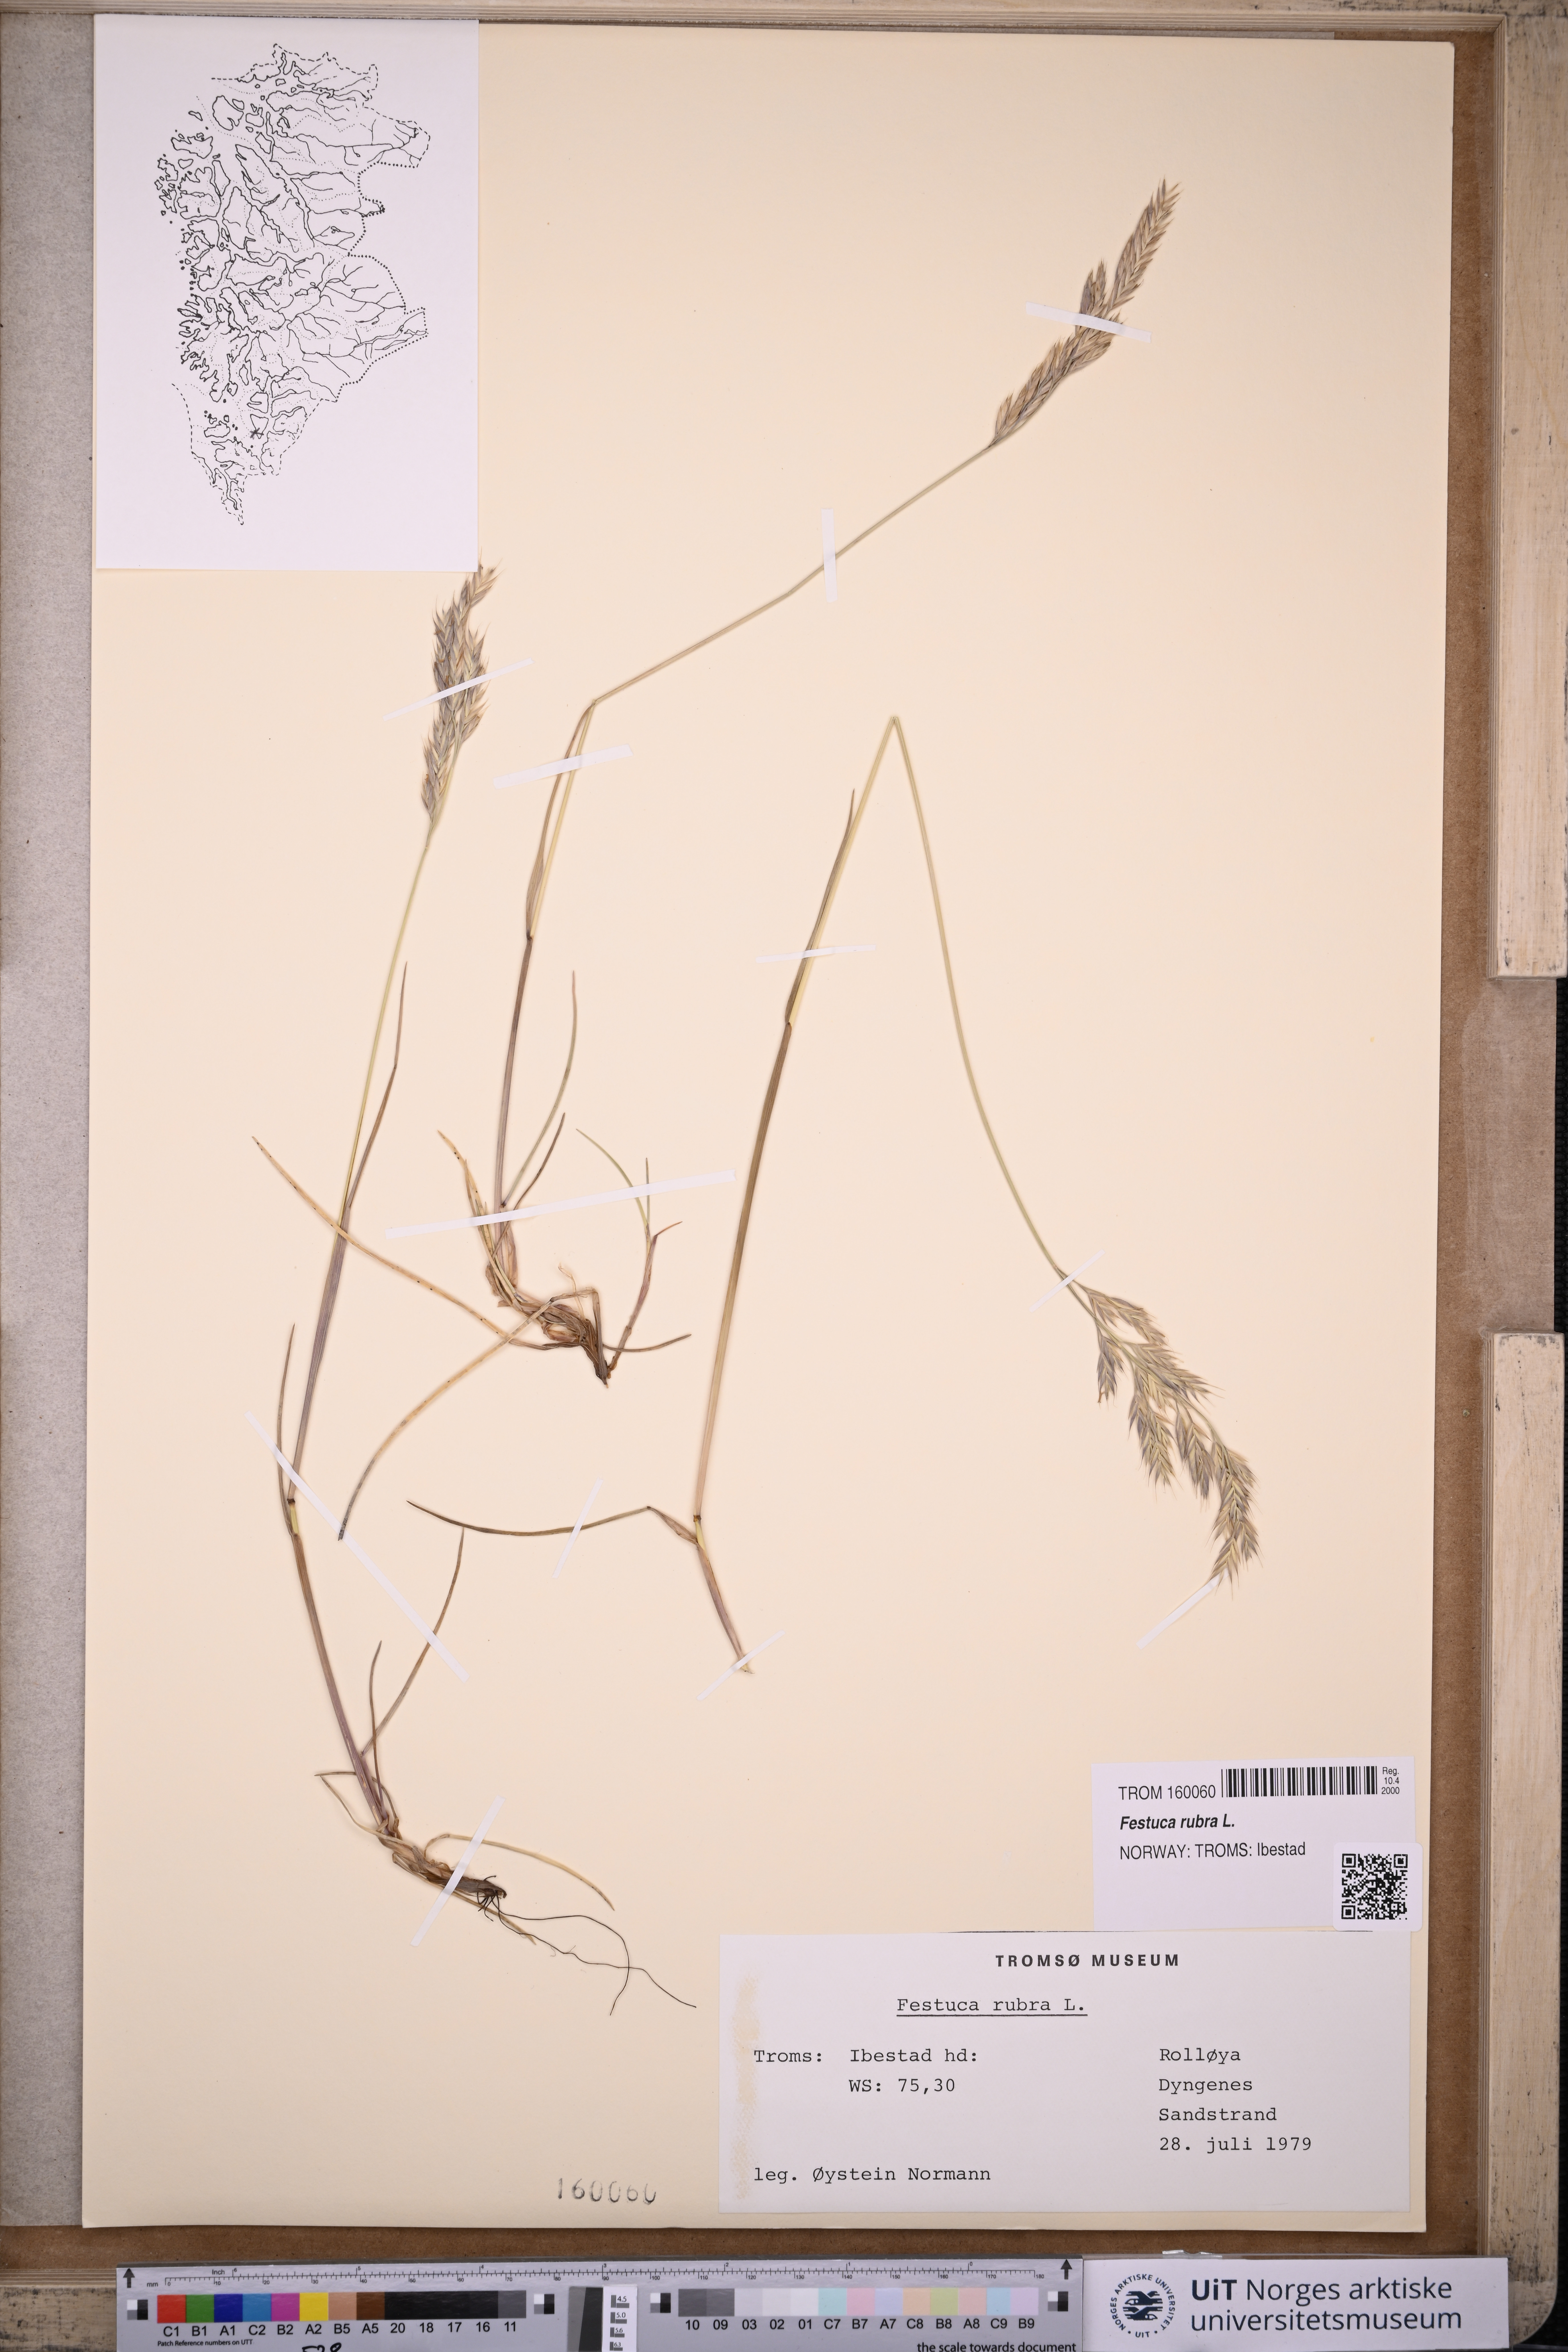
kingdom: Plantae
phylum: Tracheophyta
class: Liliopsida
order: Poales
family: Poaceae
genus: Festuca
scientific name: Festuca rubra
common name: Red fescue
